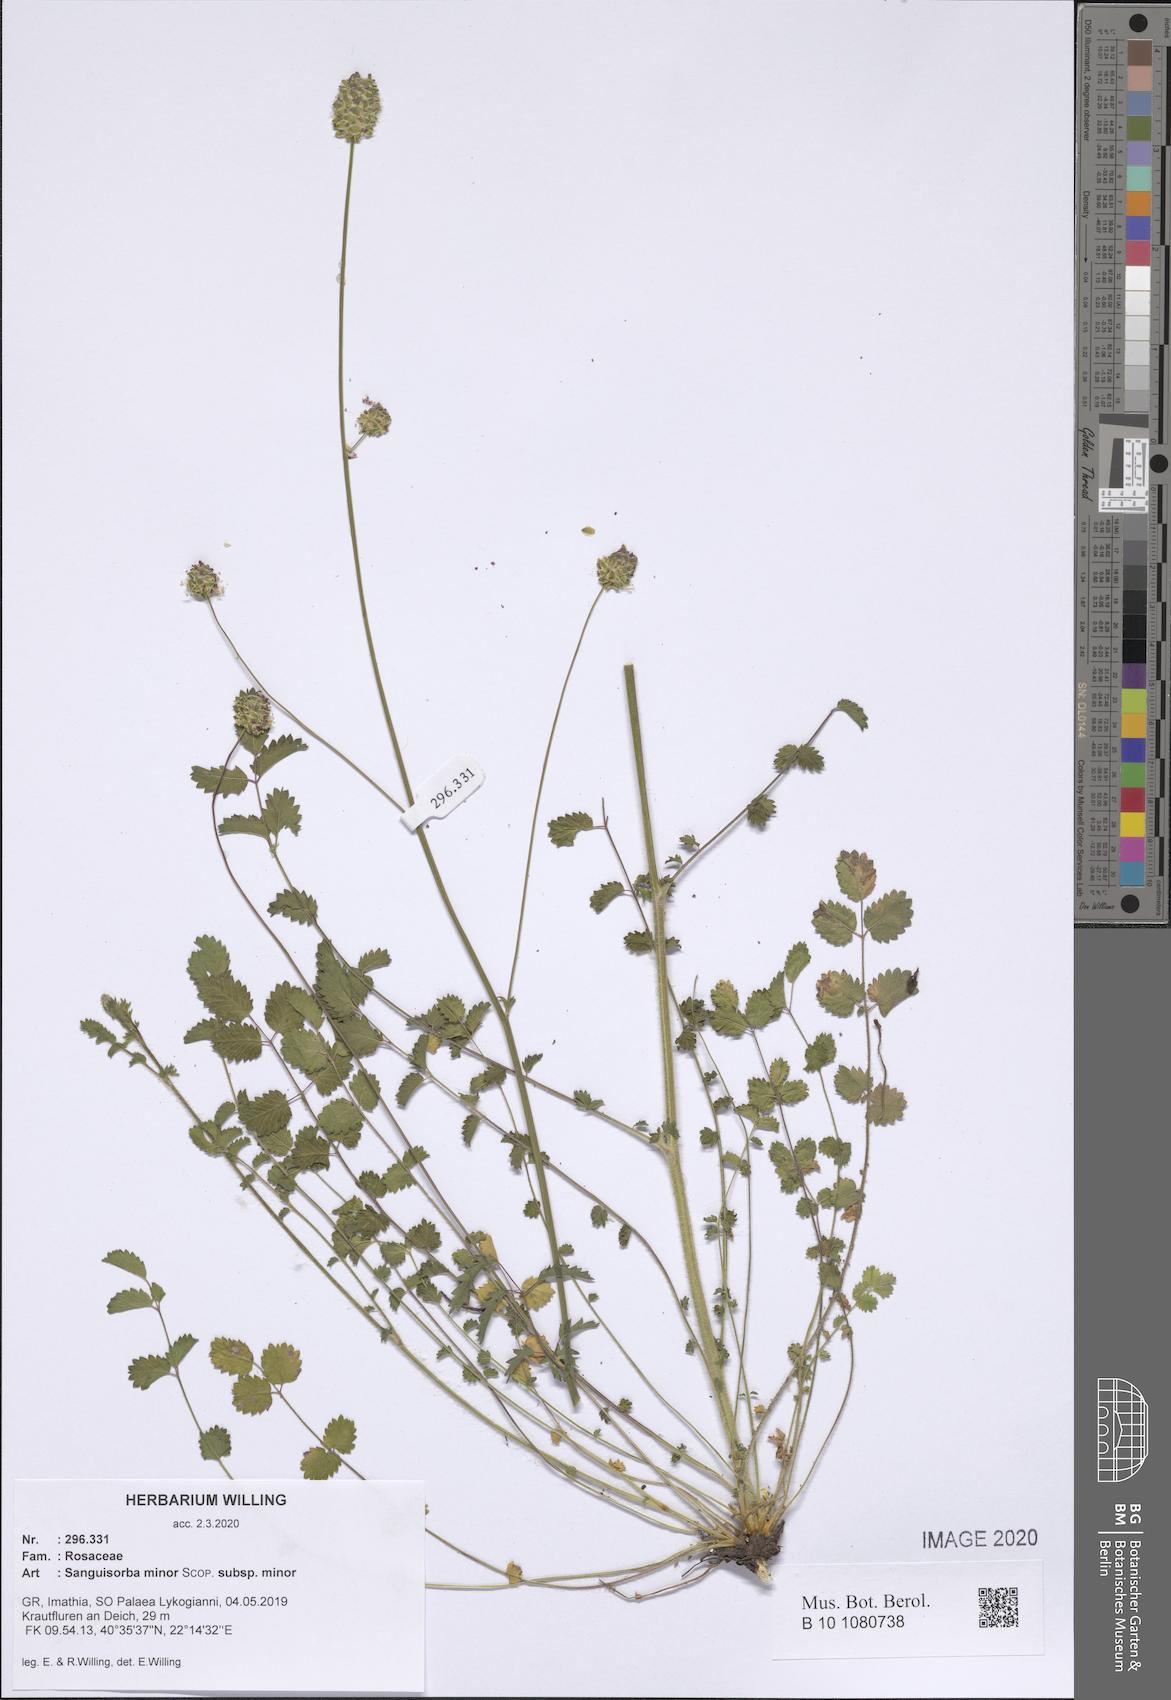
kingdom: Plantae
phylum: Tracheophyta
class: Magnoliopsida
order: Rosales
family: Rosaceae
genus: Poterium
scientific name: Poterium sanguisorba
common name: Salad burnet
